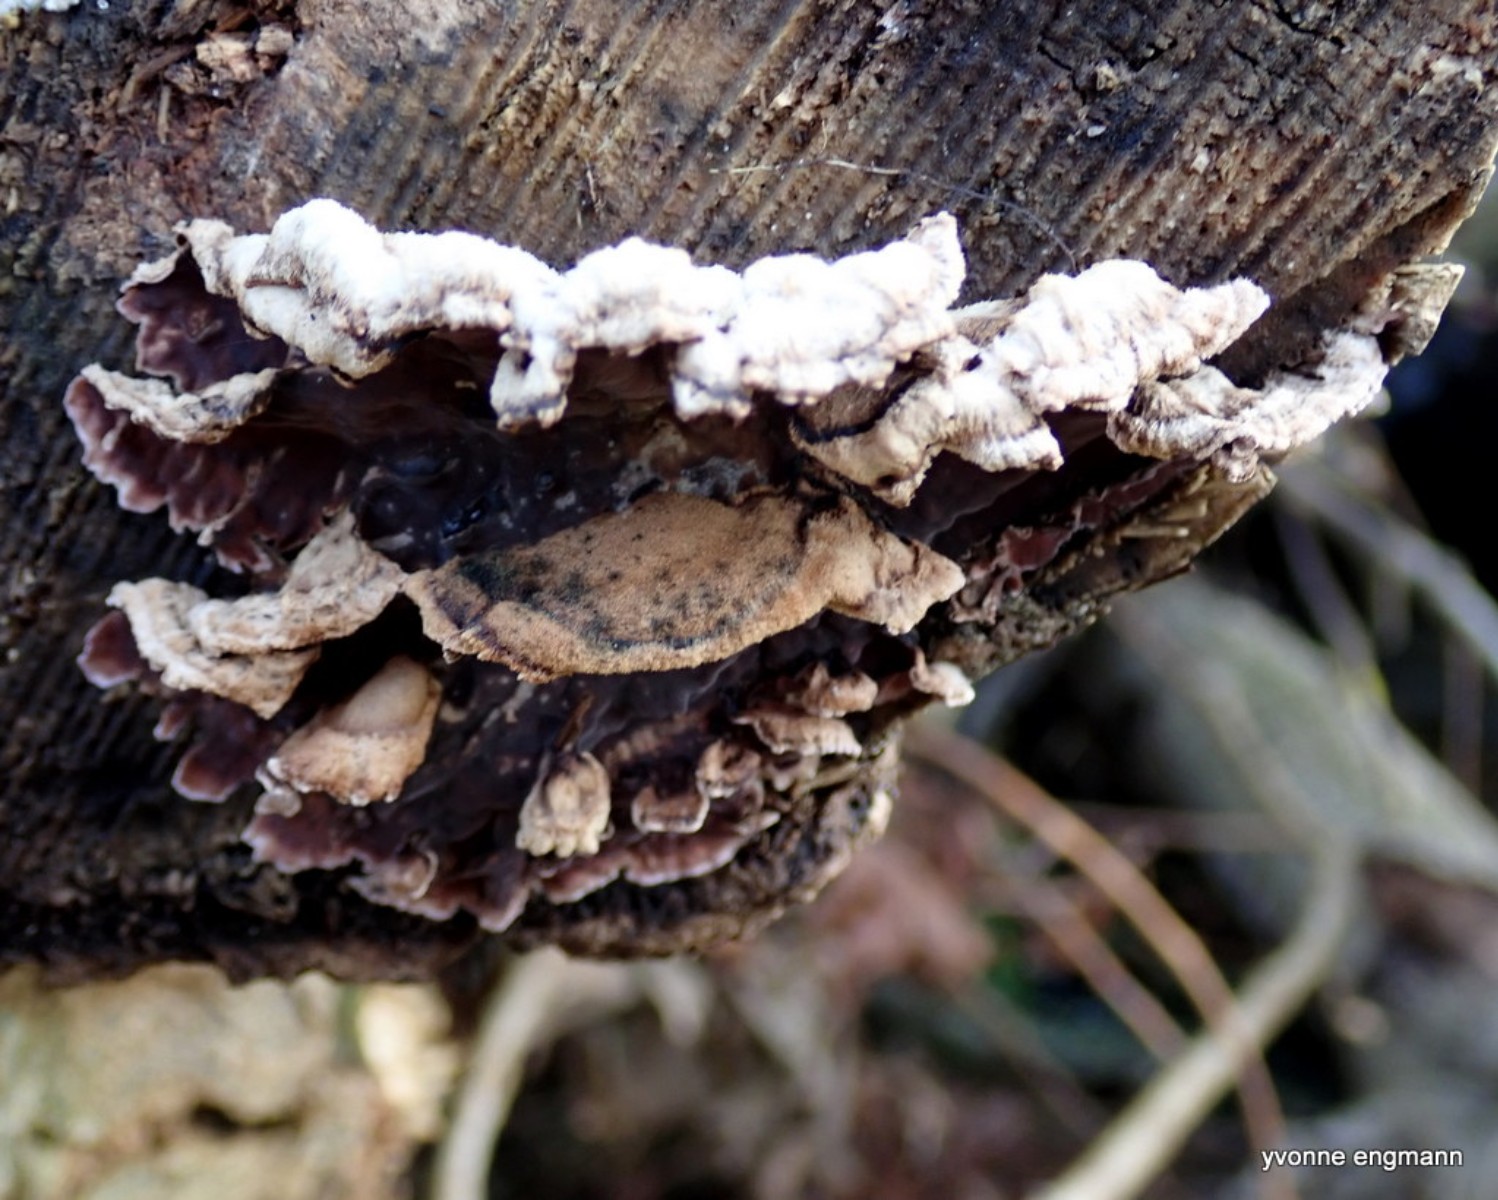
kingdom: Fungi
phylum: Basidiomycota
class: Agaricomycetes
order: Agaricales
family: Cyphellaceae
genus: Chondrostereum
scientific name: Chondrostereum purpureum
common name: purpurlædersvamp
